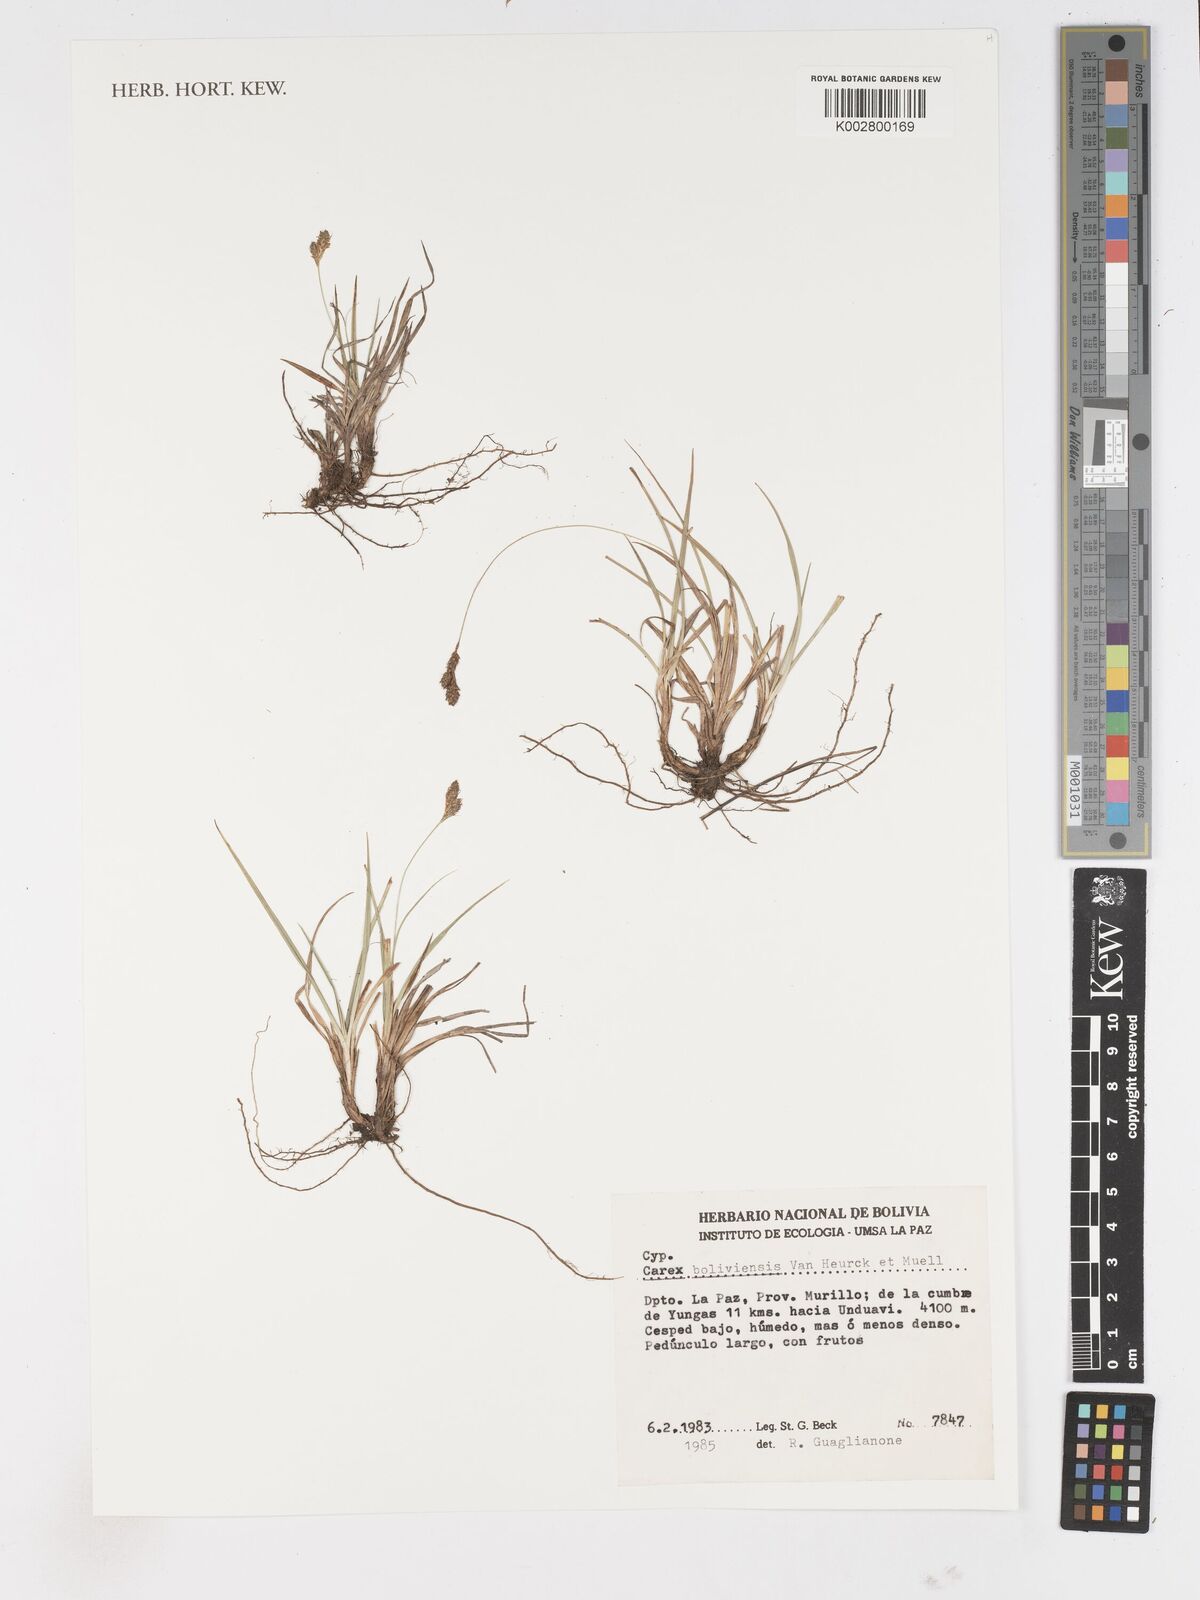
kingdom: Plantae
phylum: Tracheophyta
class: Liliopsida
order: Poales
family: Cyperaceae
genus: Carex
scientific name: Carex boliviensis
